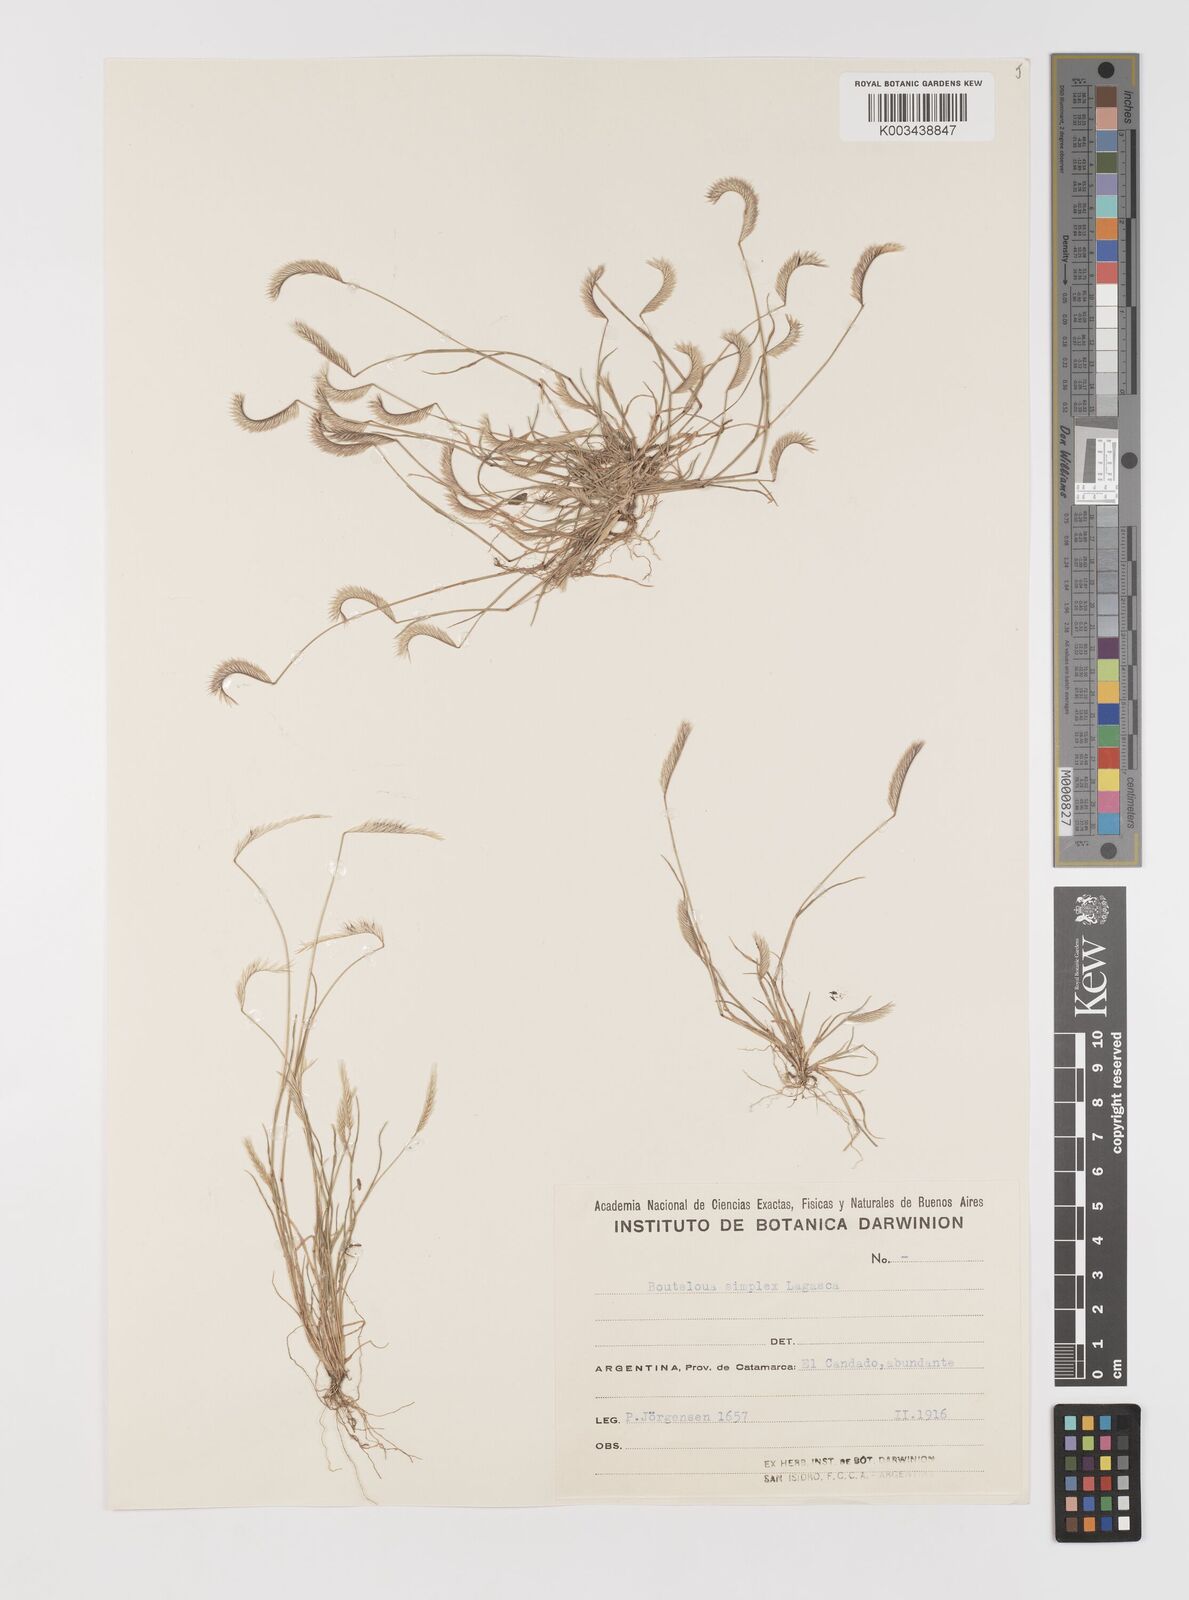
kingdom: Plantae
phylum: Tracheophyta
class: Liliopsida
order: Poales
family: Poaceae
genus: Bouteloua
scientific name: Bouteloua simplex
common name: Mat grama
